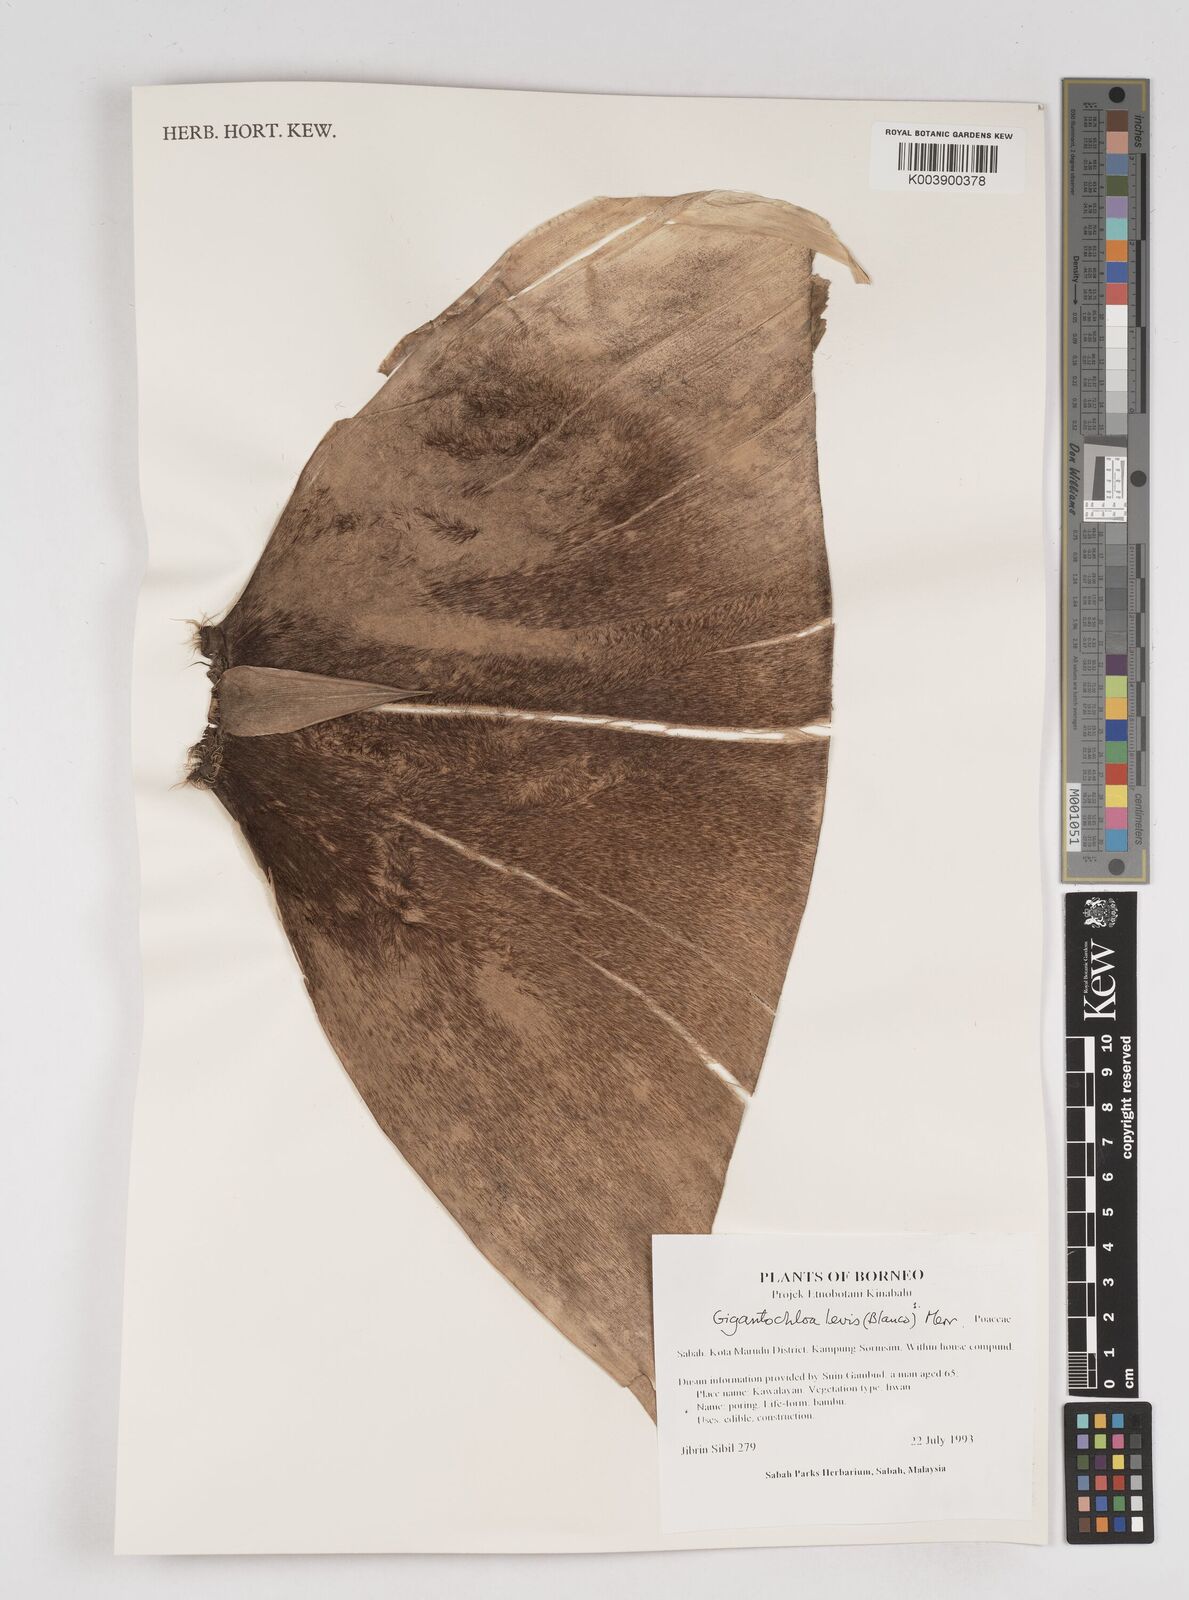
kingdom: Plantae
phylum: Tracheophyta
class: Liliopsida
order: Poales
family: Poaceae
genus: Gigantochloa
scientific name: Gigantochloa levis
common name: Smooth-shoot gigantochloa
